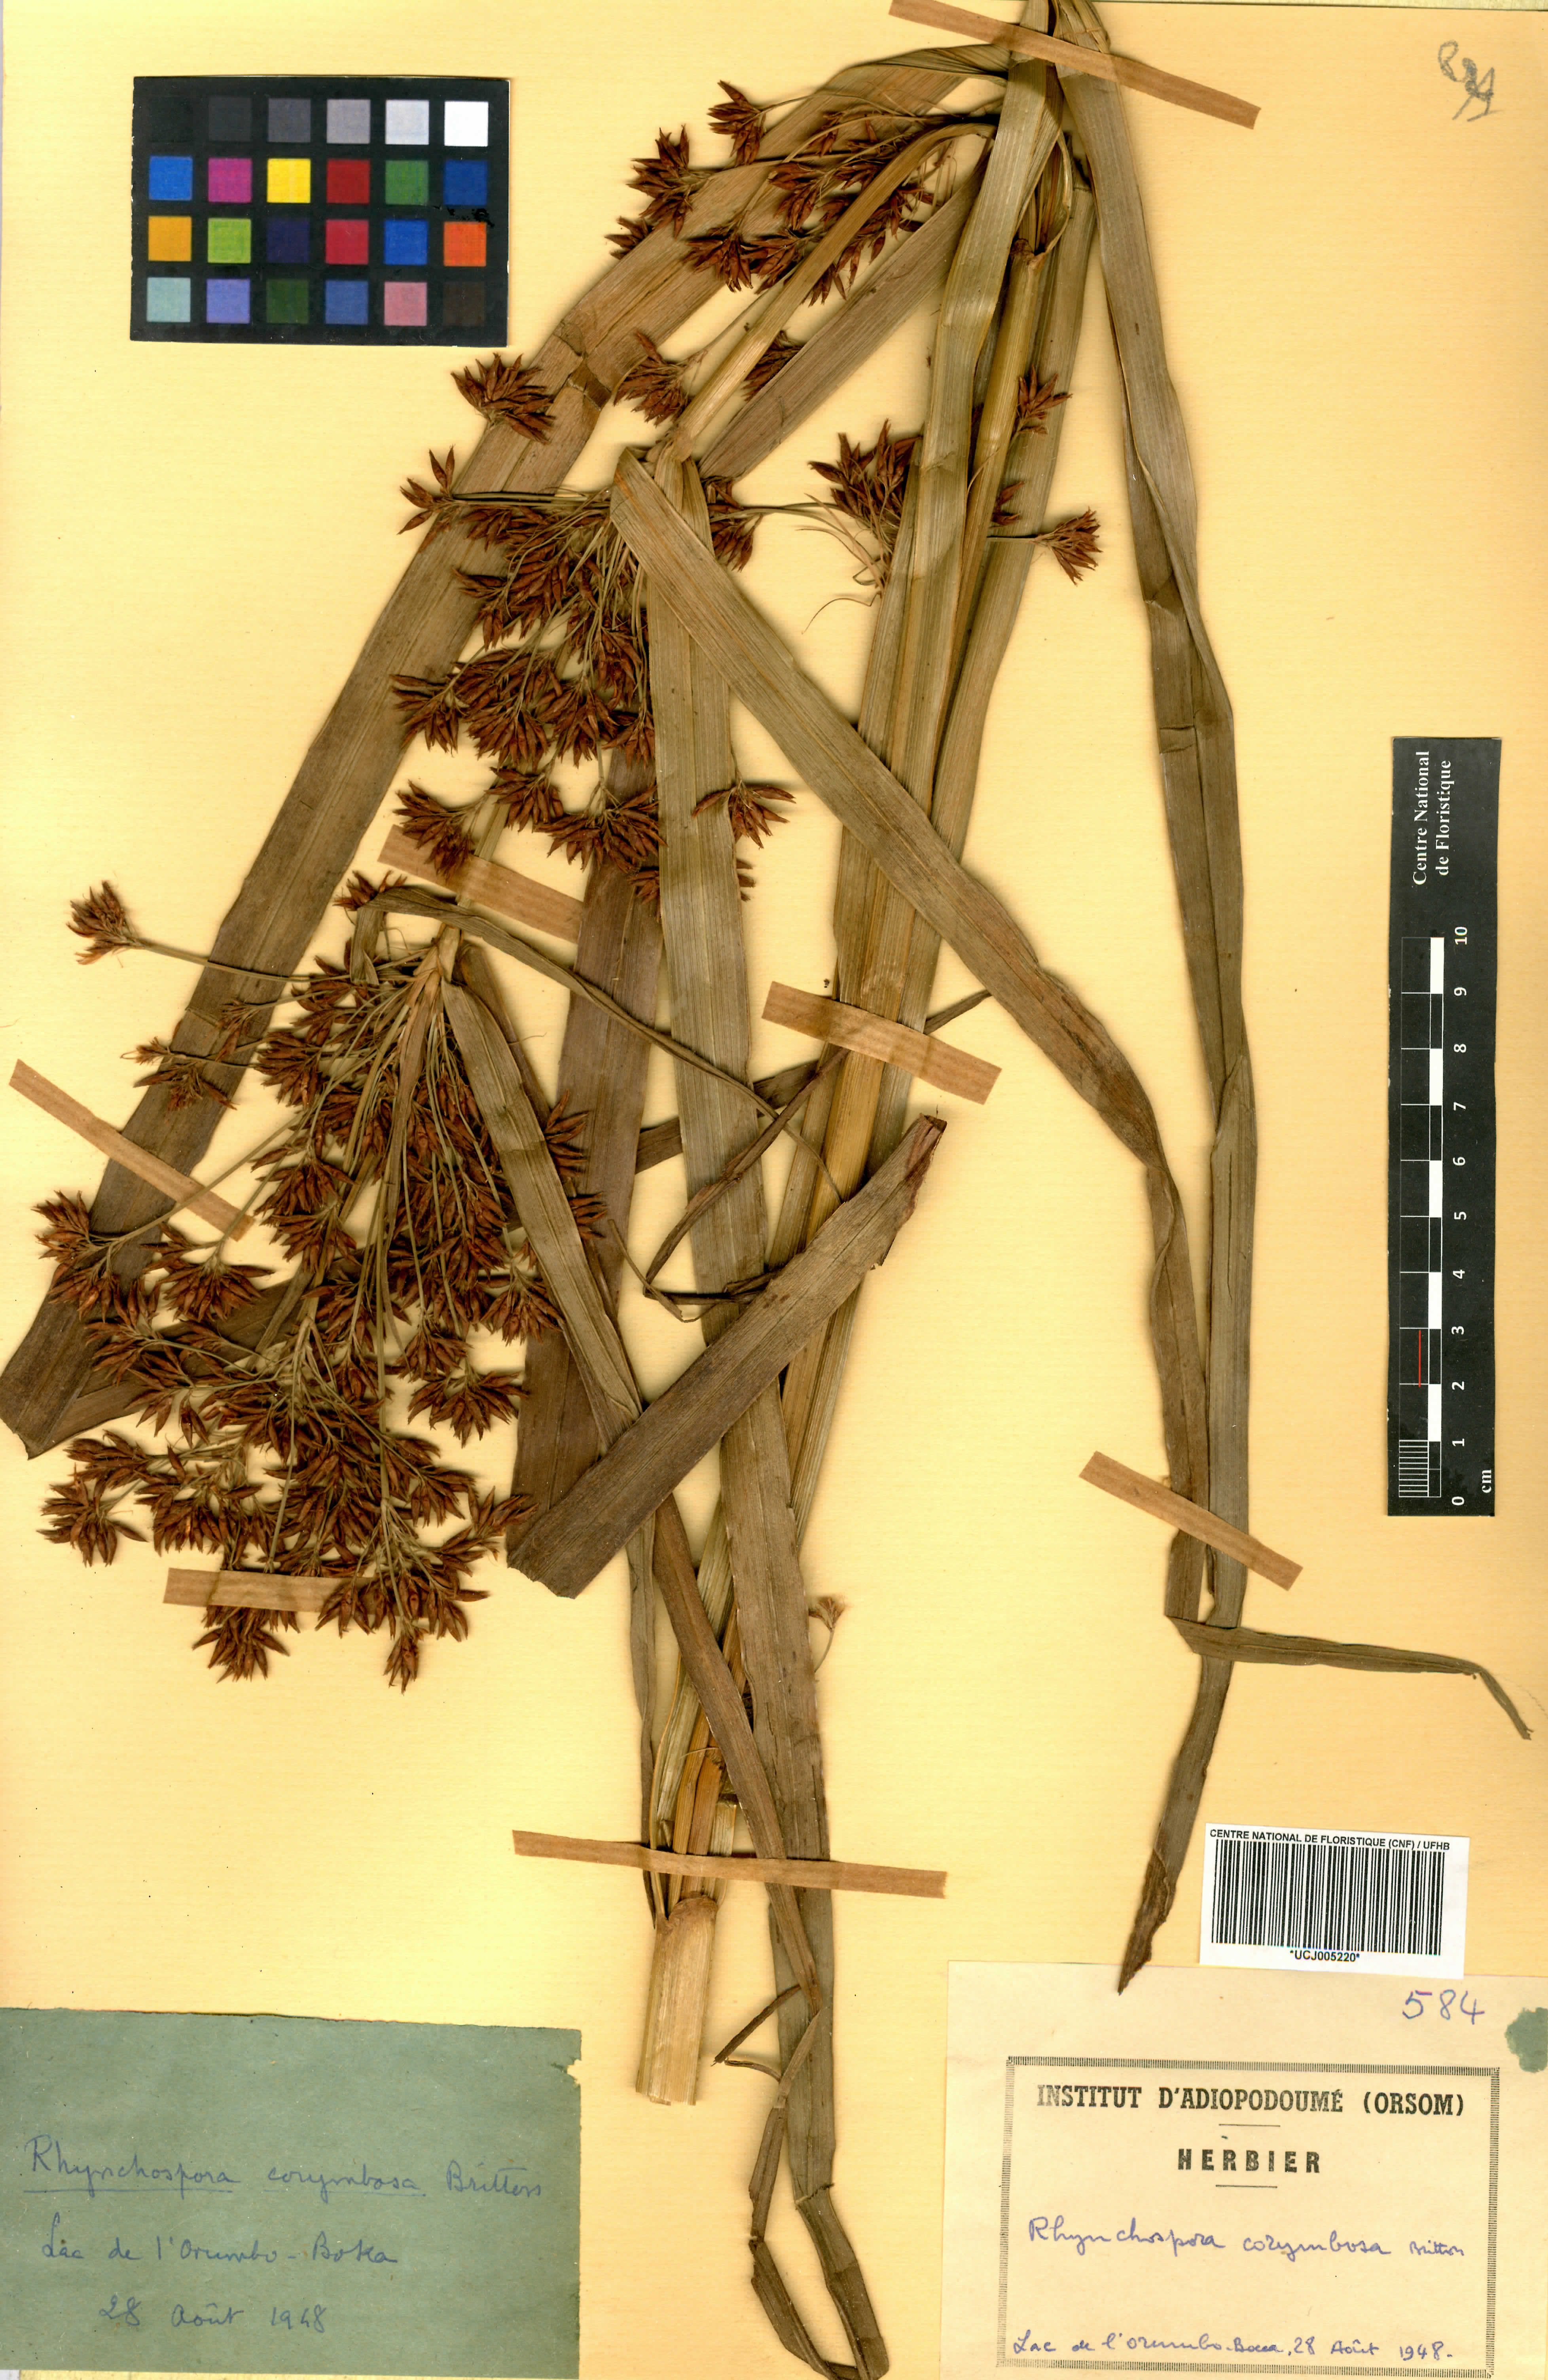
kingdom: Plantae
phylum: Tracheophyta
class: Liliopsida
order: Poales
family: Cyperaceae
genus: Rhynchospora
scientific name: Rhynchospora corymbosa
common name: Golden beak sedge
